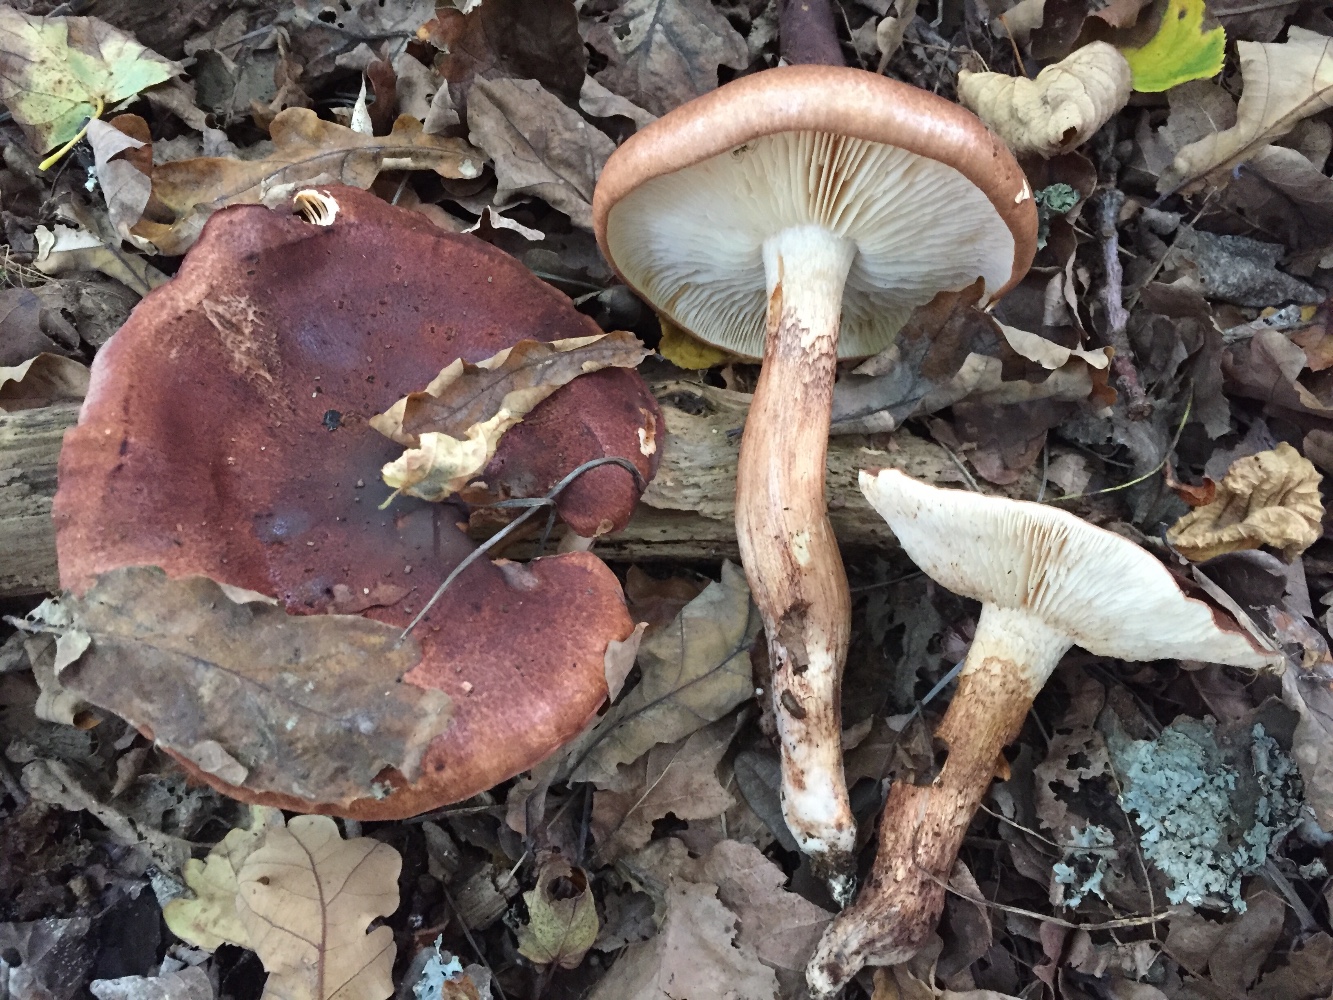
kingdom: Fungi
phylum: Basidiomycota
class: Agaricomycetes
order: Agaricales
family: Tricholomataceae
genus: Tricholoma
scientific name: Tricholoma ustaloides
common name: knippe-ridderhat
